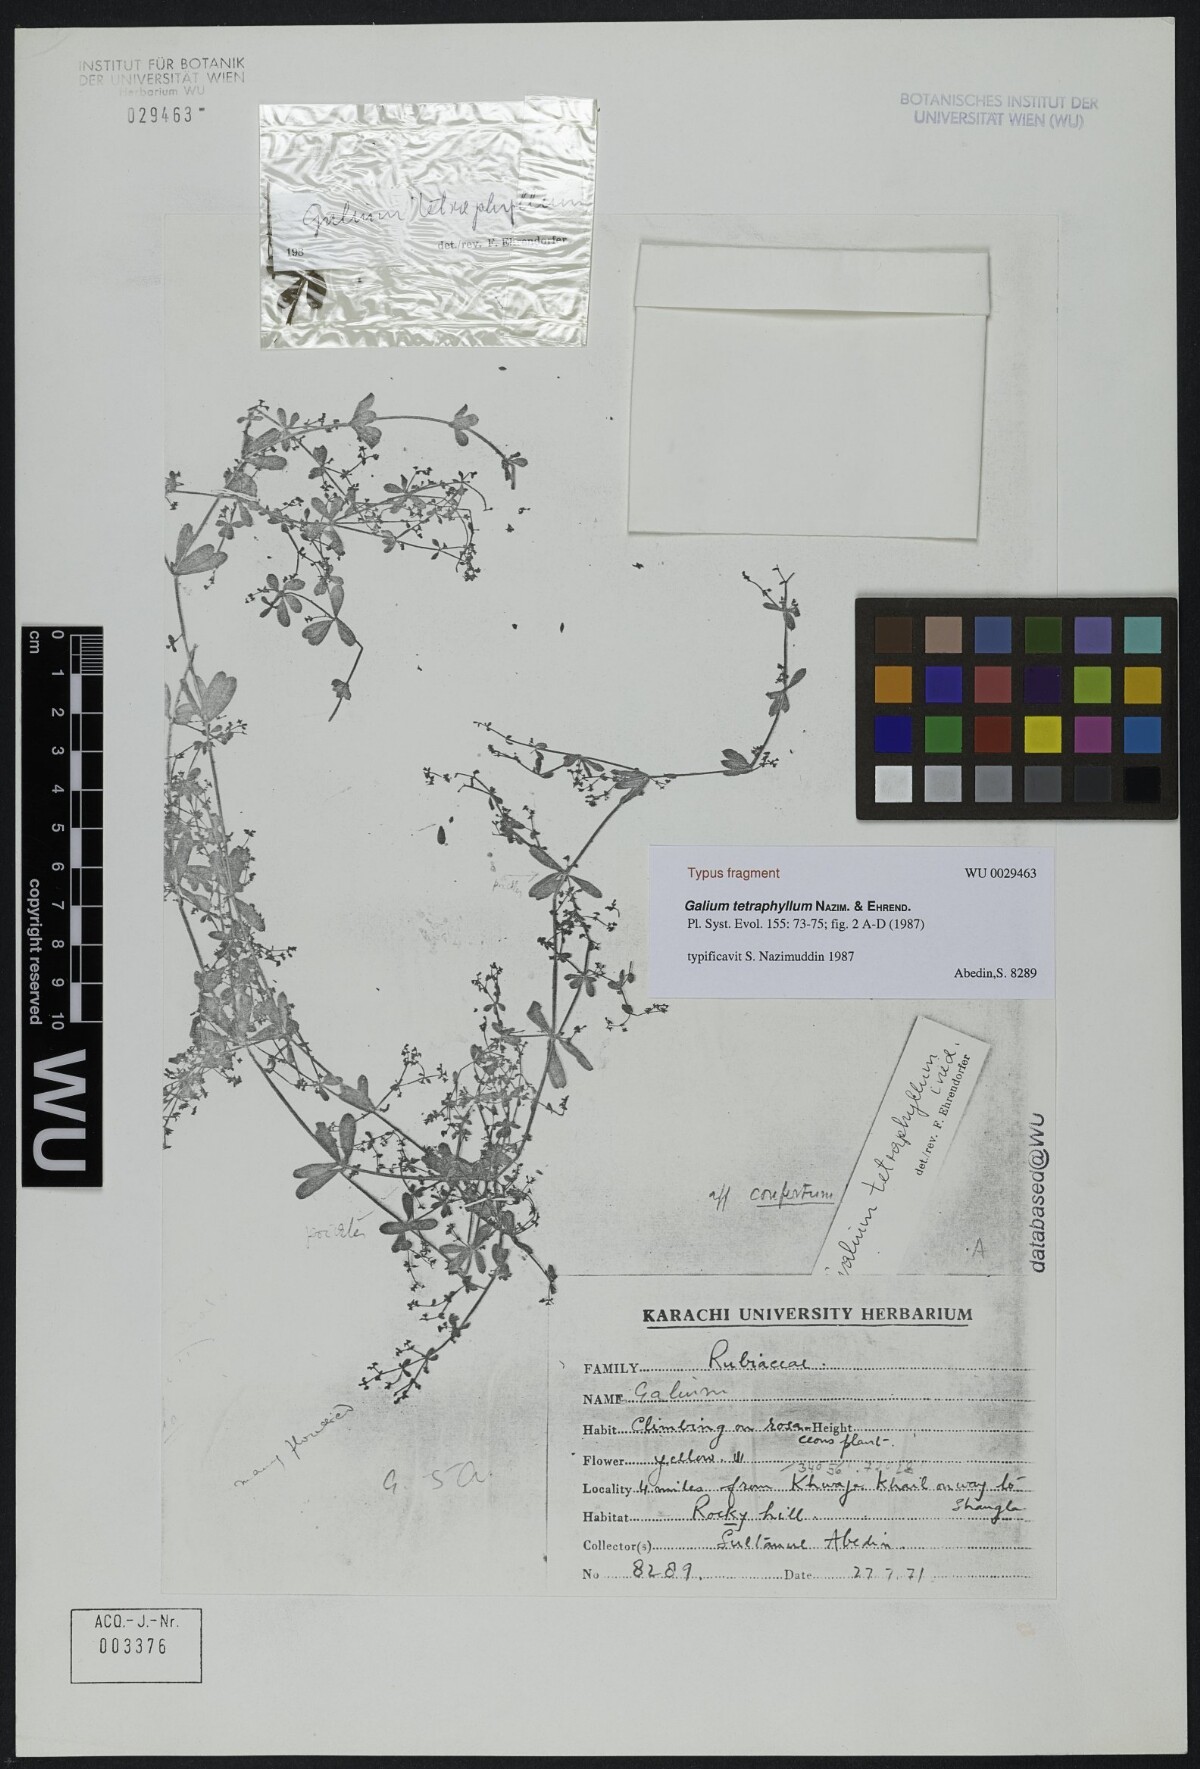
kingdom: Plantae
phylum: Tracheophyta
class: Magnoliopsida
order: Gentianales
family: Rubiaceae
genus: Galium
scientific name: Galium tetraphyllum
